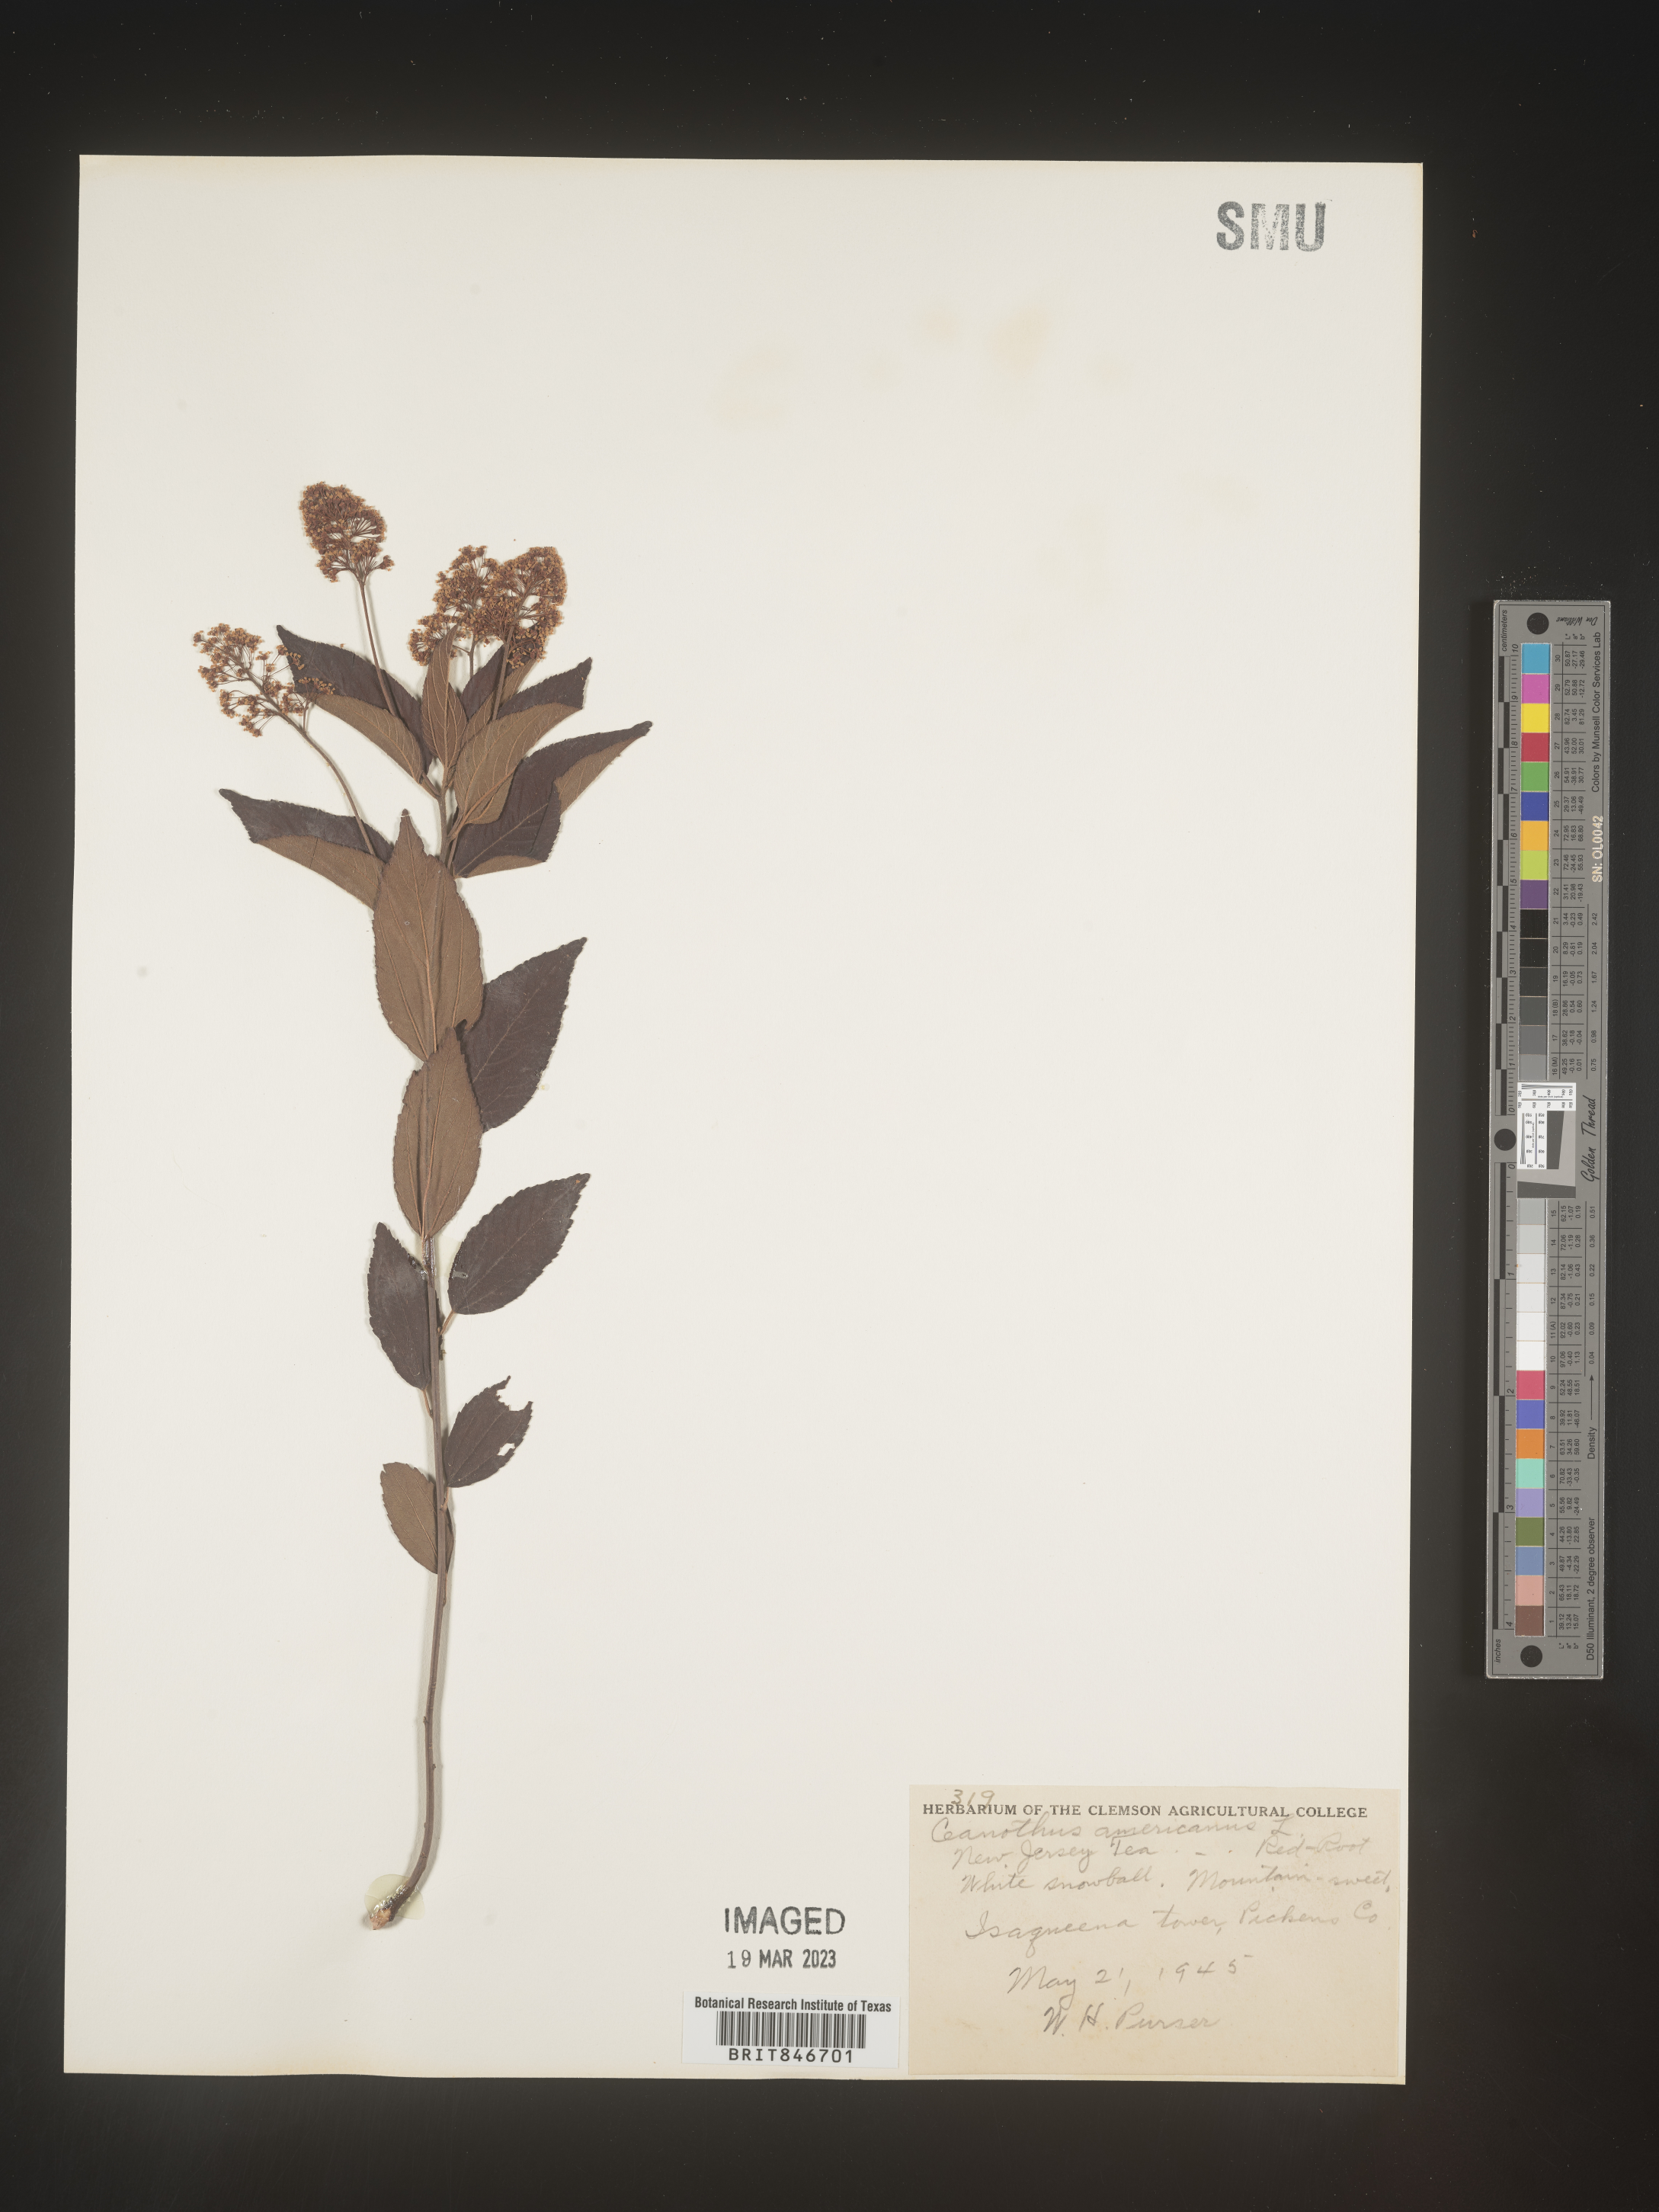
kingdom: Plantae
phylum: Tracheophyta
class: Magnoliopsida
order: Rosales
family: Rhamnaceae
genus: Ceanothus
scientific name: Ceanothus americanus
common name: Redroot
